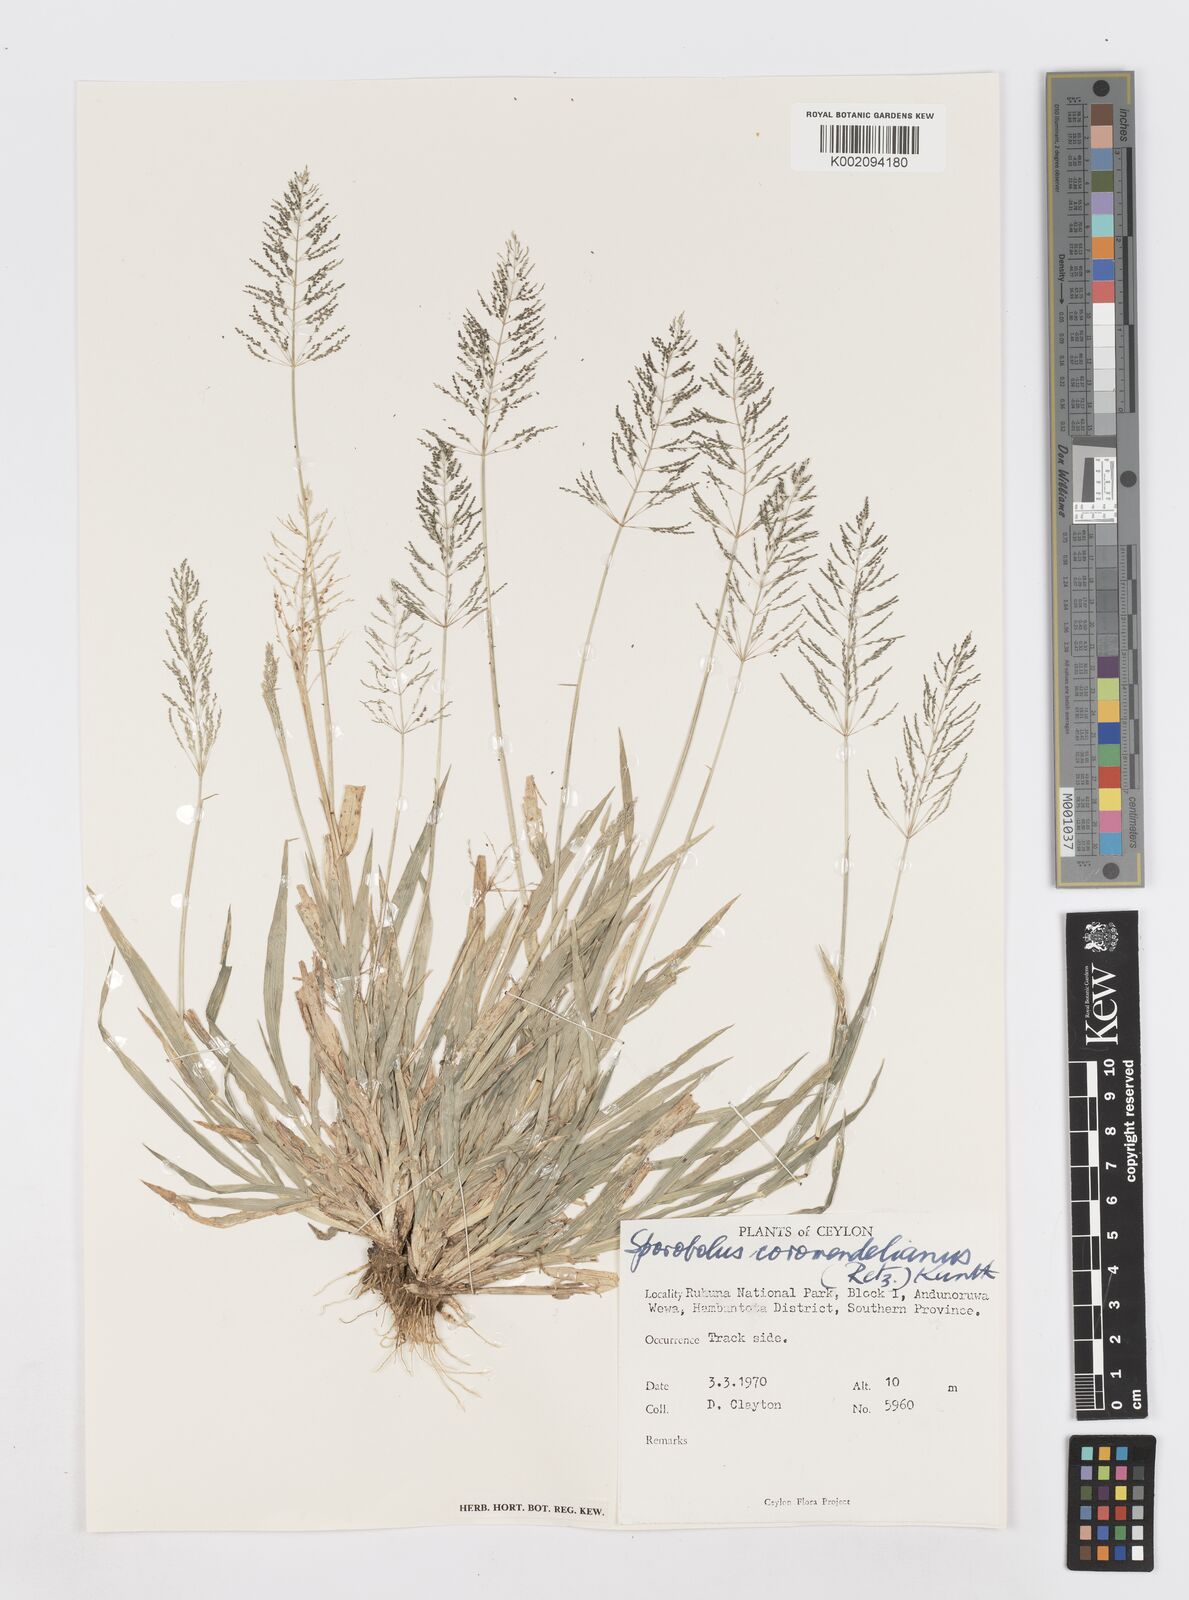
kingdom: Plantae
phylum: Tracheophyta
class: Liliopsida
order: Poales
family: Poaceae
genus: Sporobolus
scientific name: Sporobolus coromandelianus
